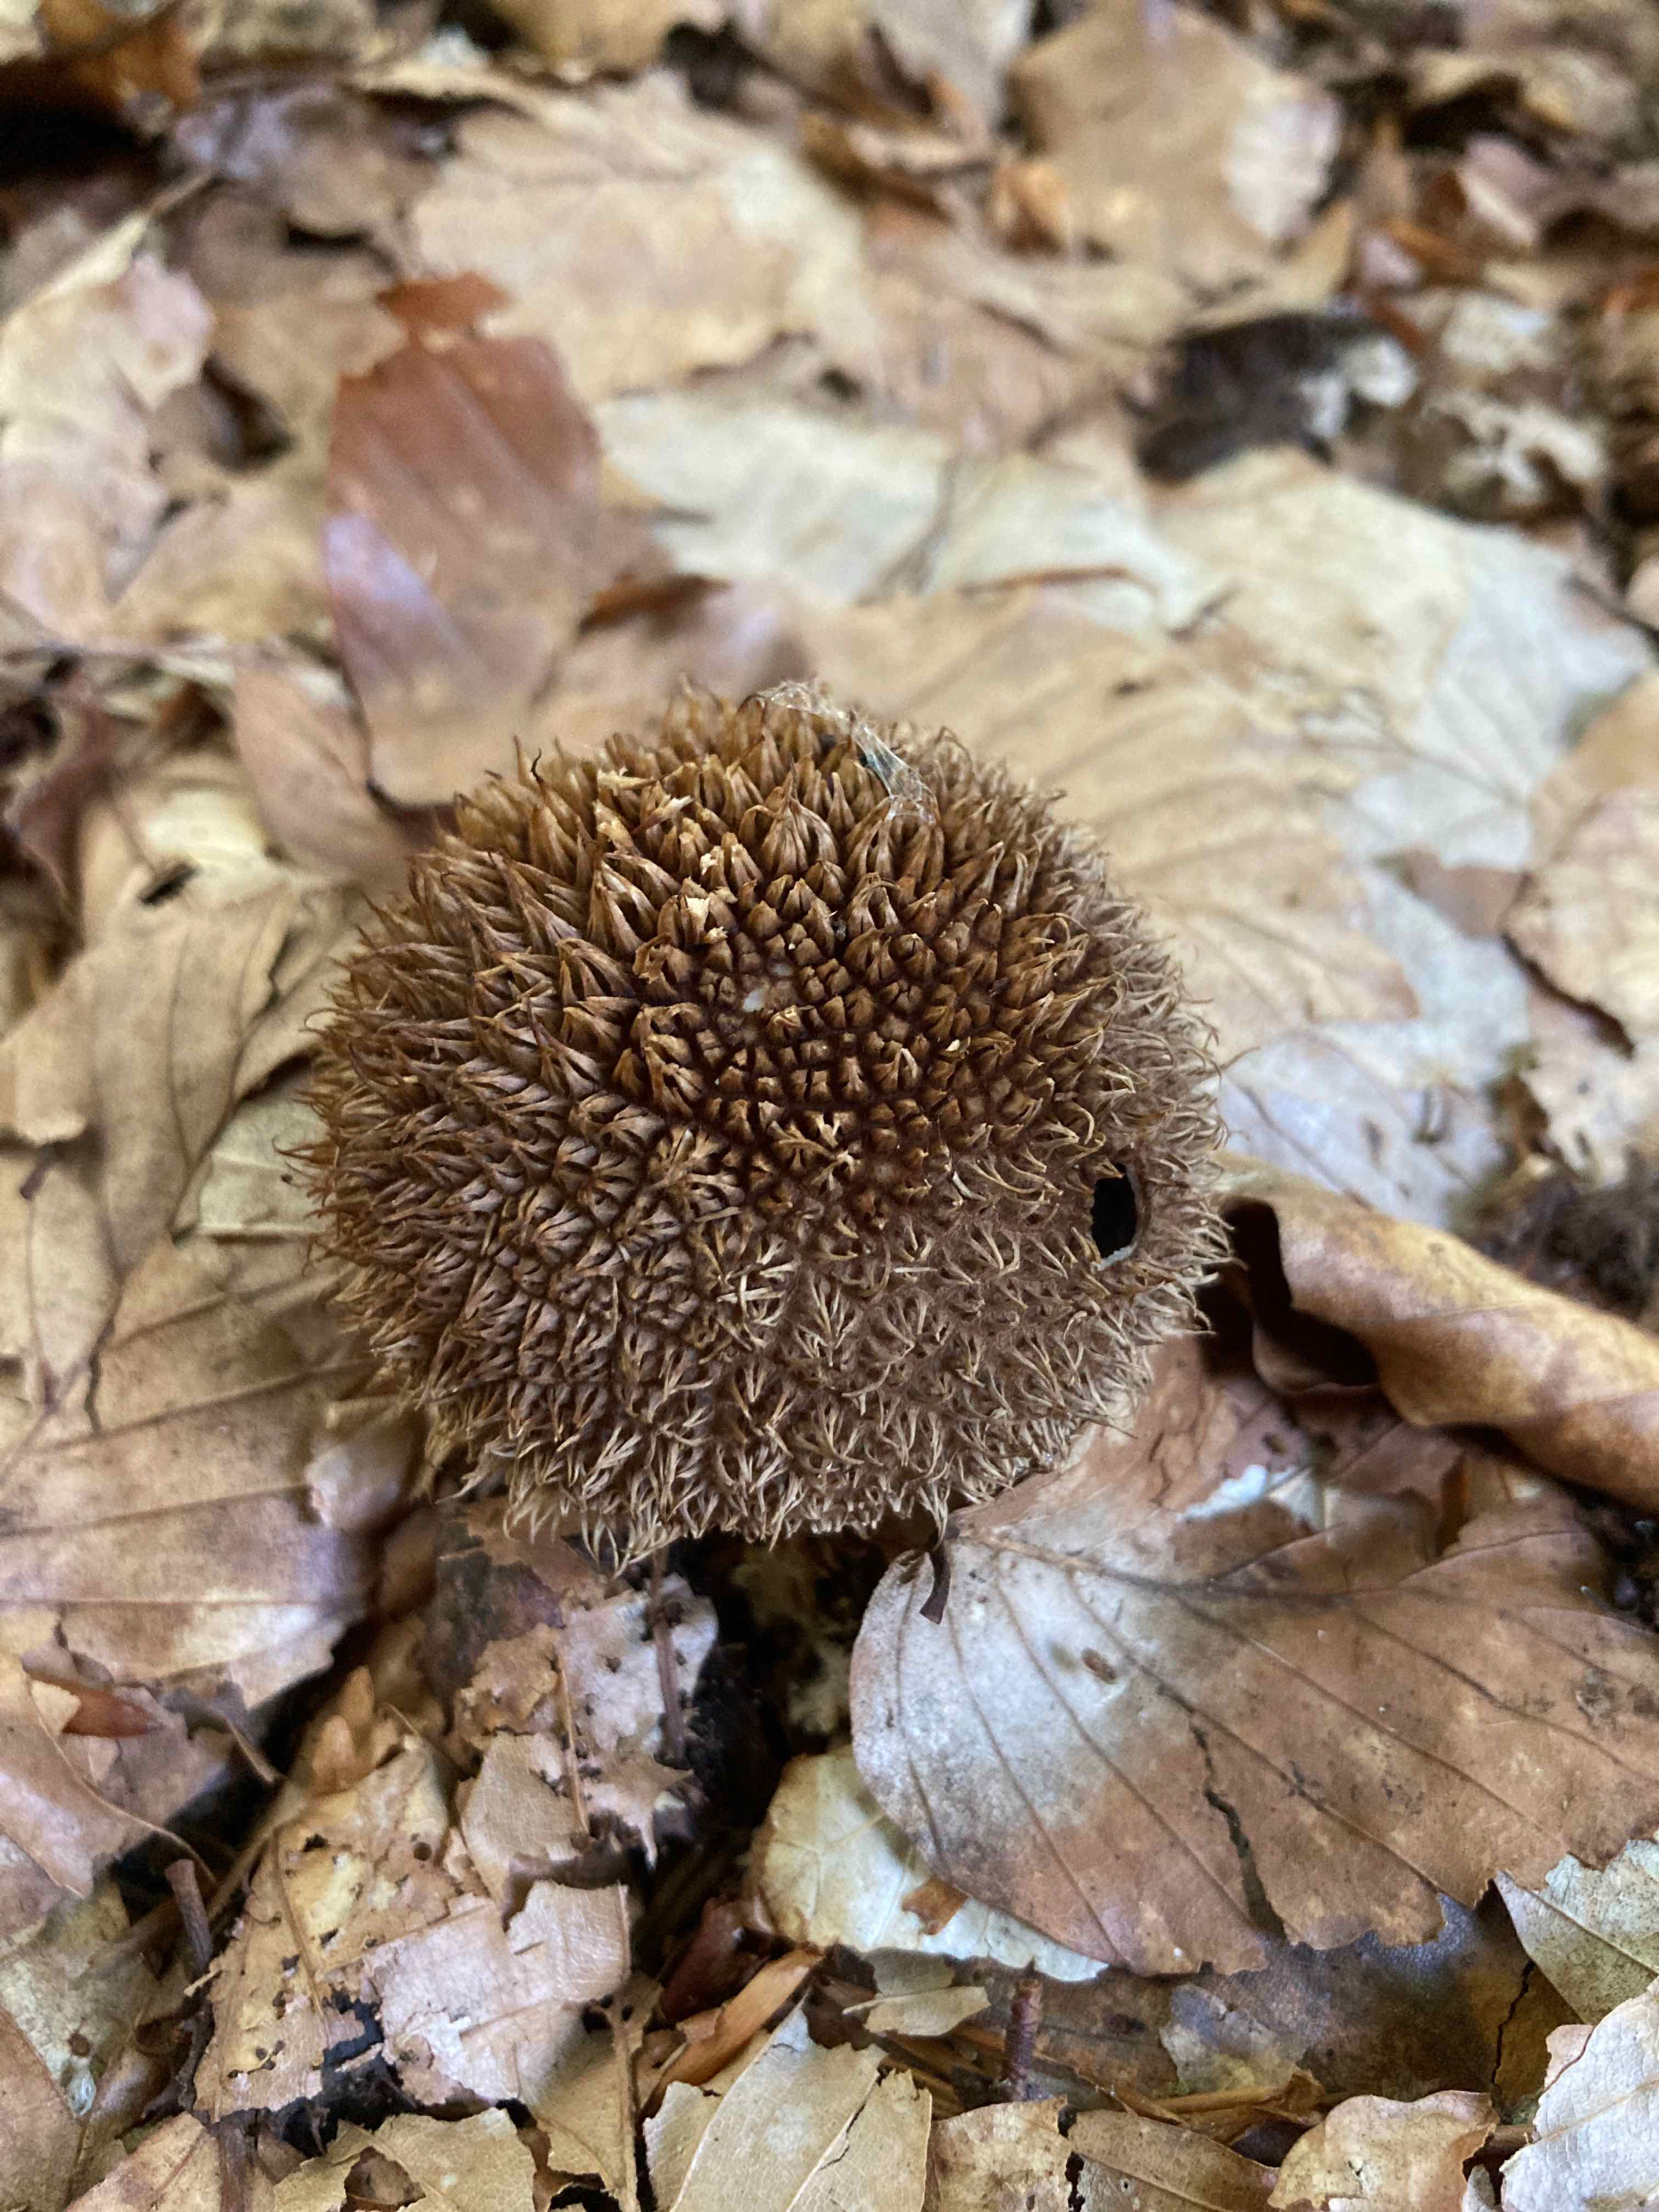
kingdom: Fungi
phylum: Basidiomycota
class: Agaricomycetes
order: Agaricales
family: Lycoperdaceae
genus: Lycoperdon
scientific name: Lycoperdon echinatum
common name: pindsvine-støvbold
